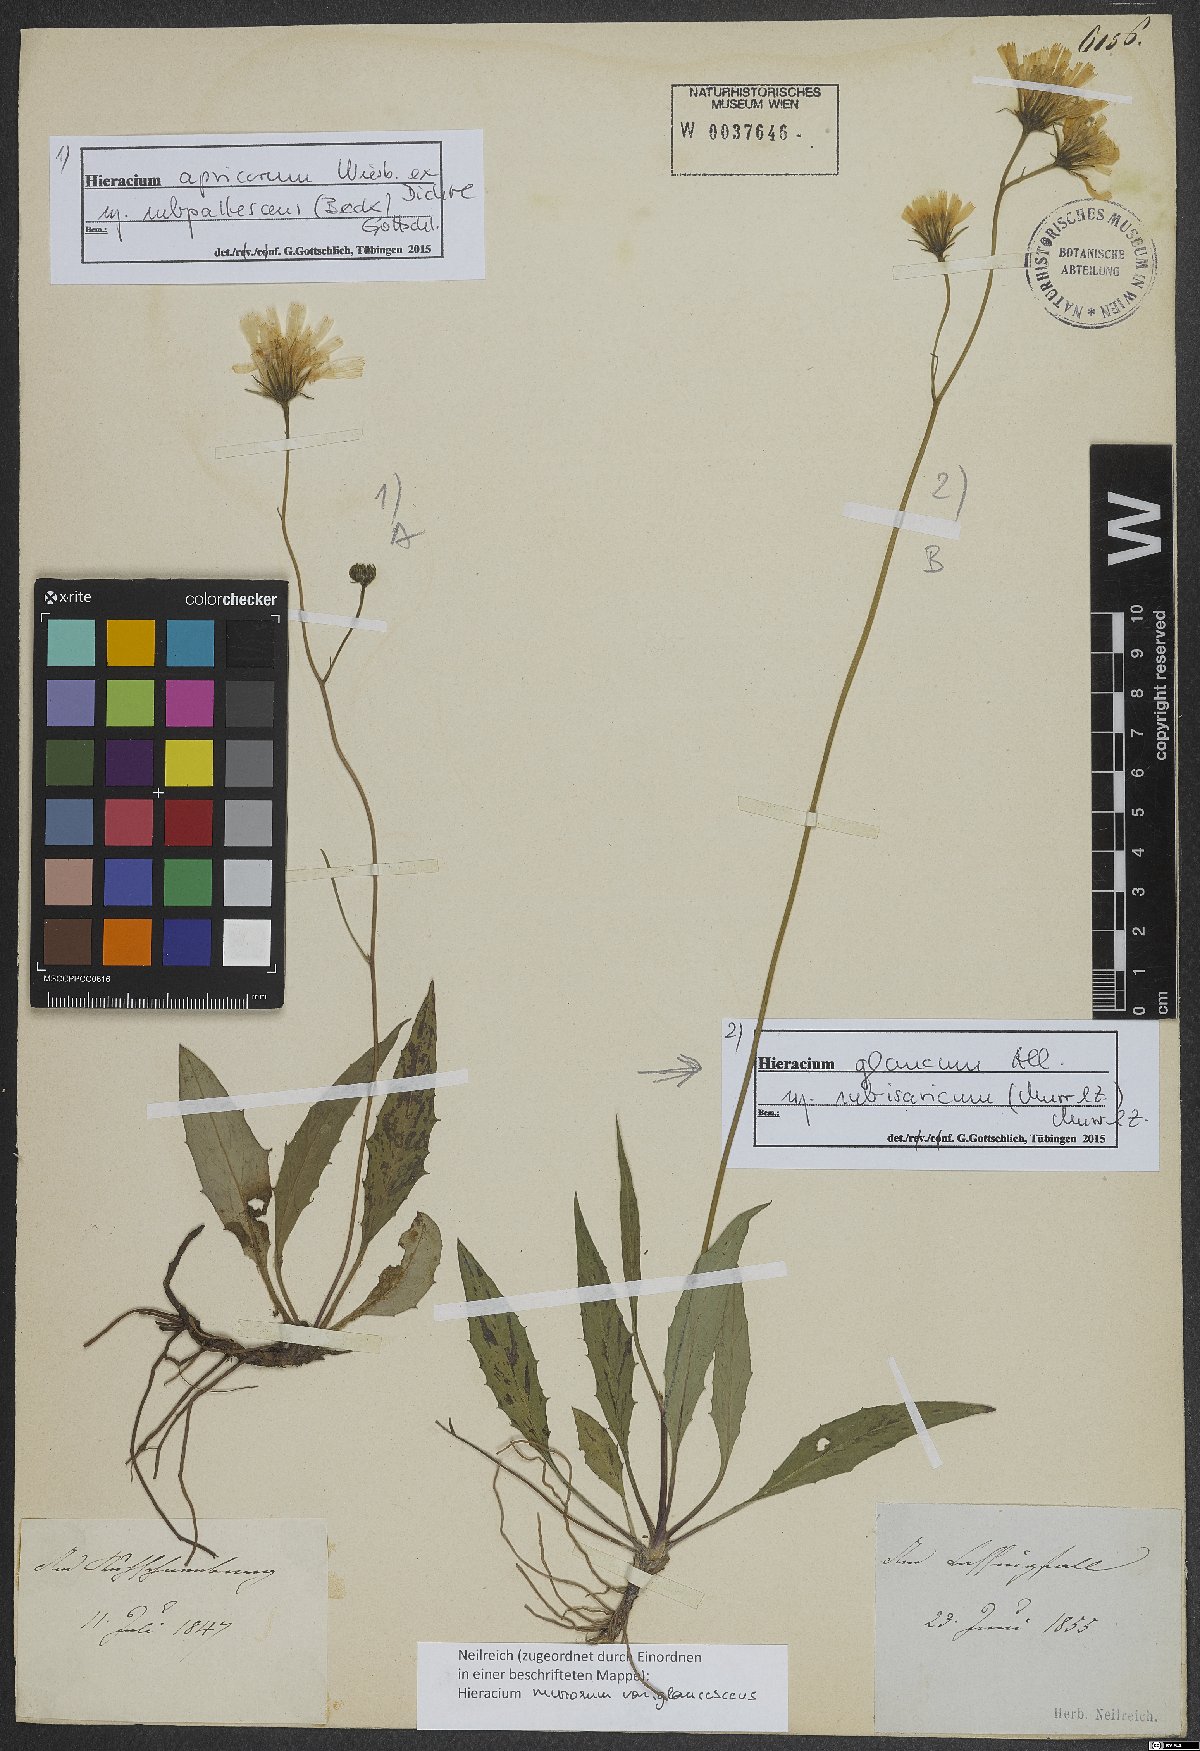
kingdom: Plantae
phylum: Tracheophyta
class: Magnoliopsida
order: Asterales
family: Asteraceae
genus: Hieracium
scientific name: Hieracium glaucum
